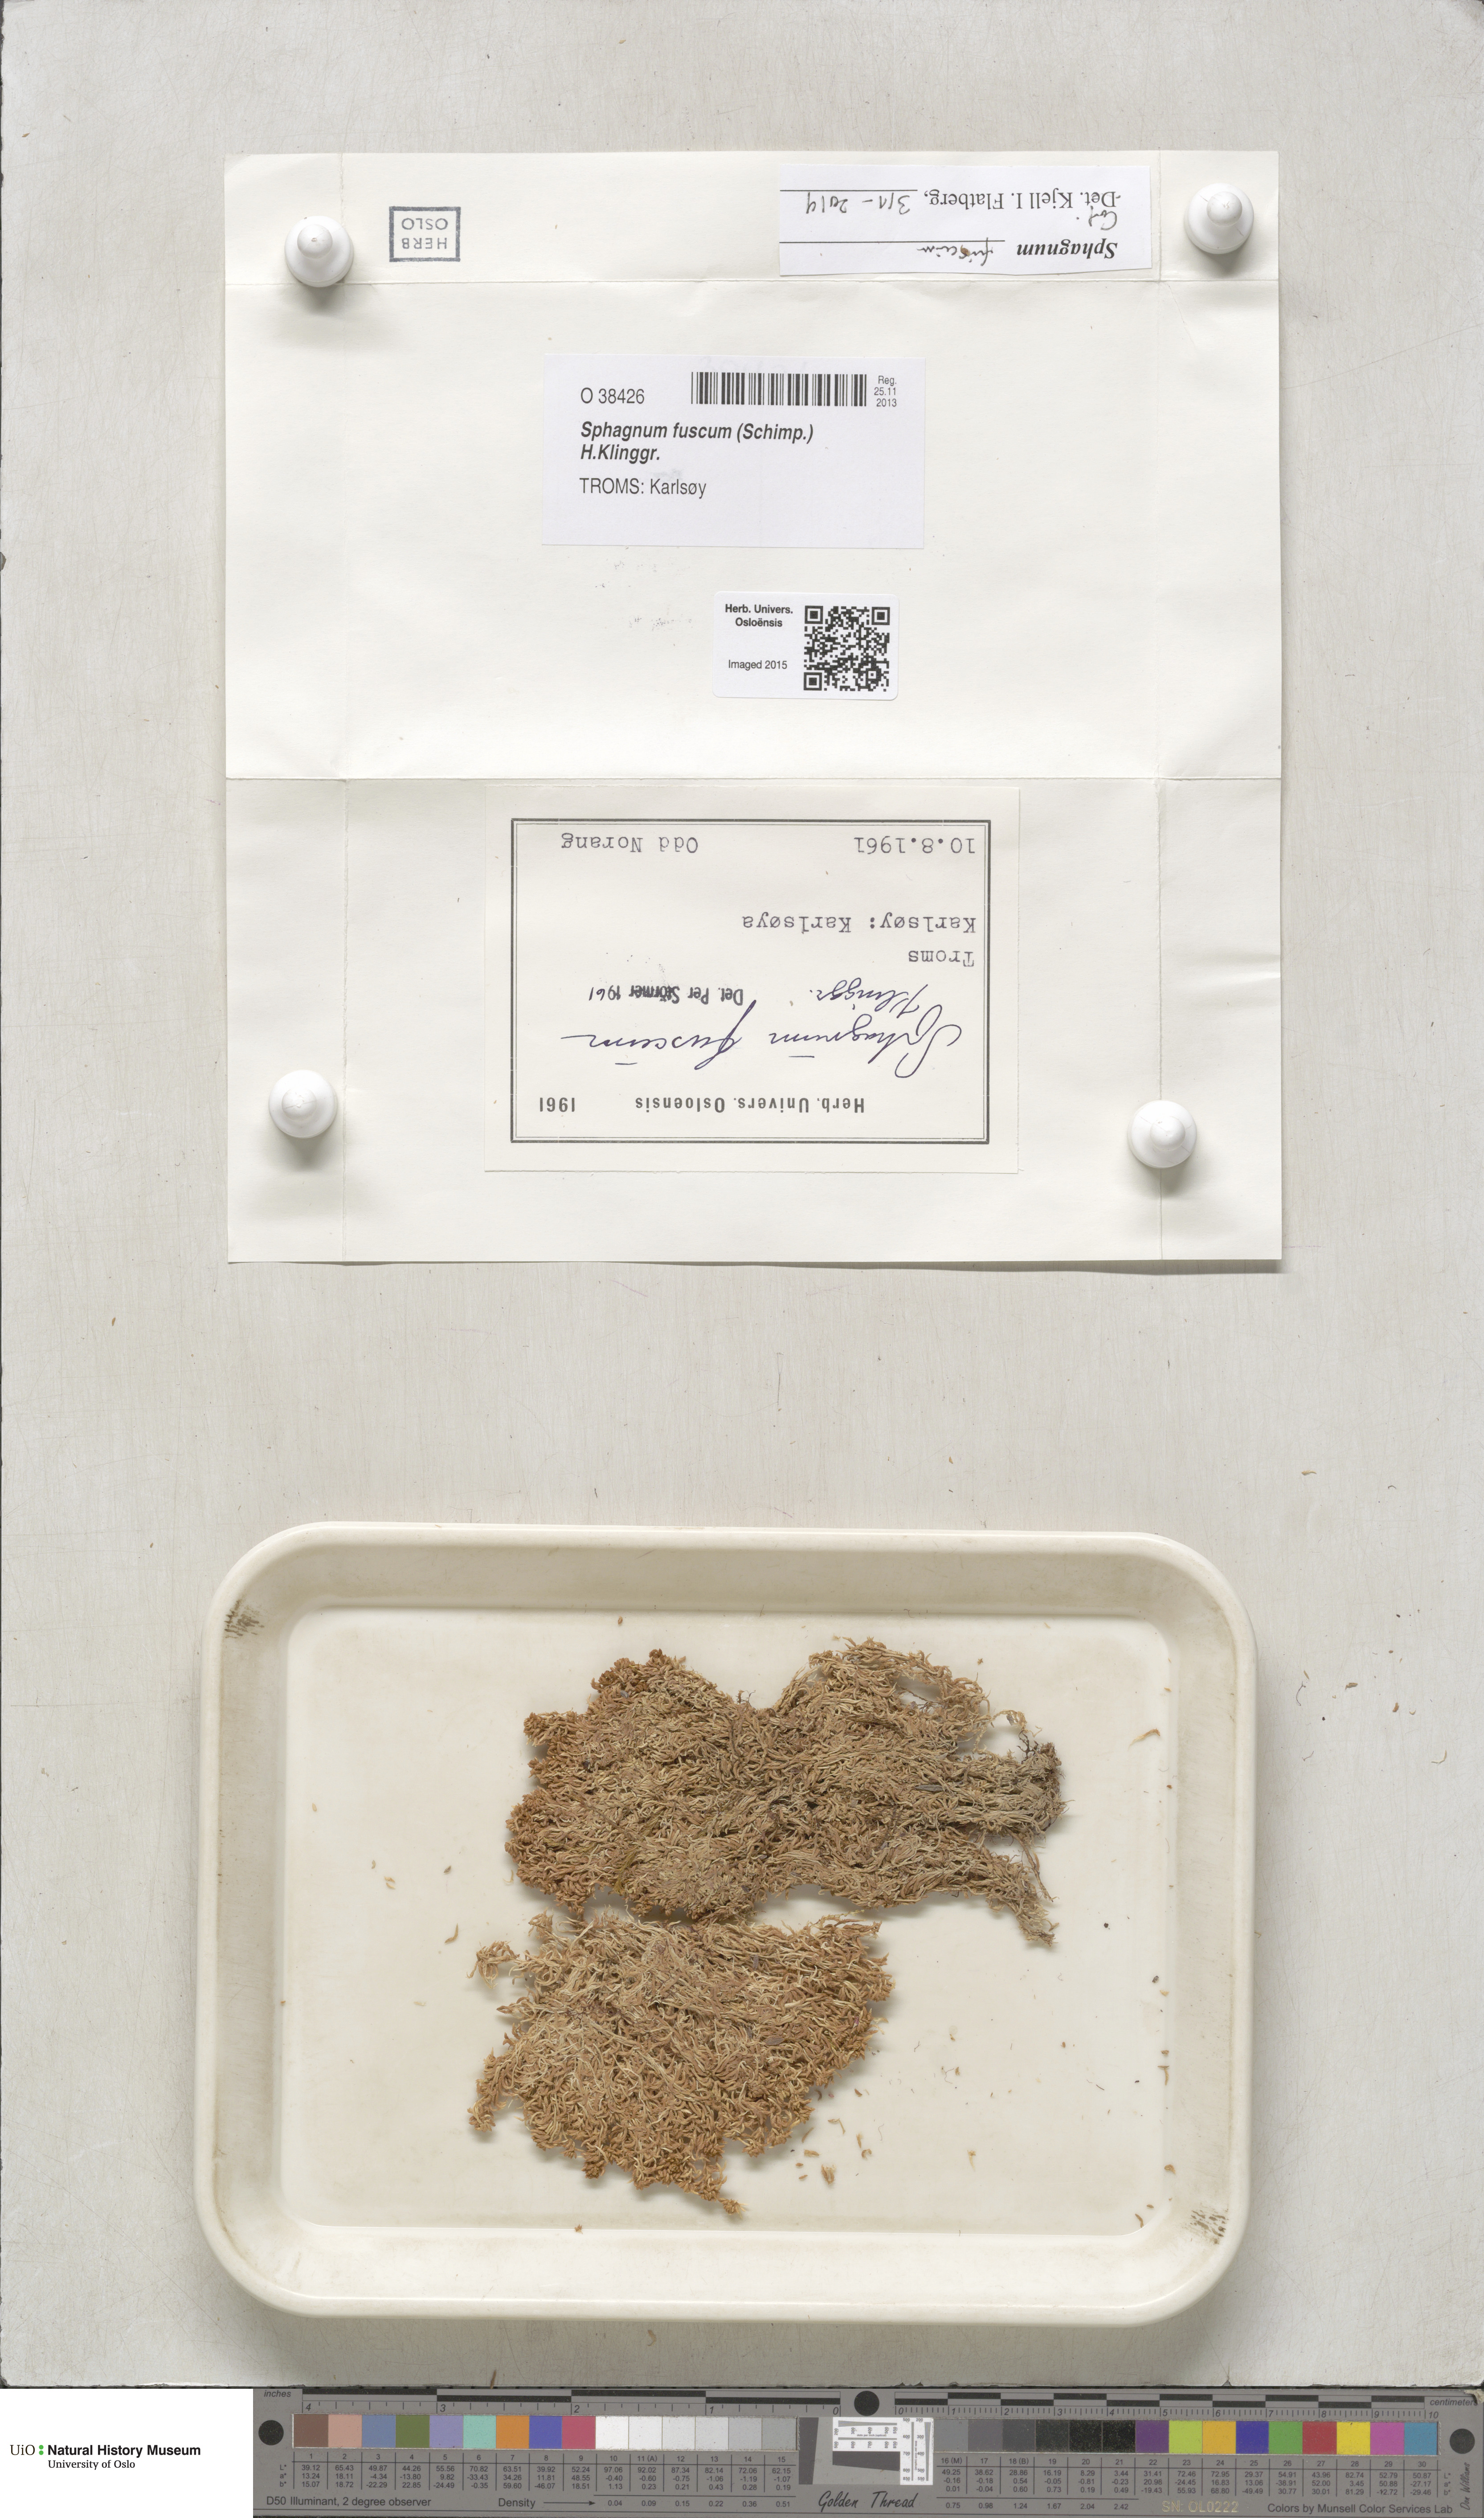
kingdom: Plantae
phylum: Bryophyta
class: Sphagnopsida
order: Sphagnales
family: Sphagnaceae
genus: Sphagnum
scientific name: Sphagnum fuscum
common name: Brown peat moss
